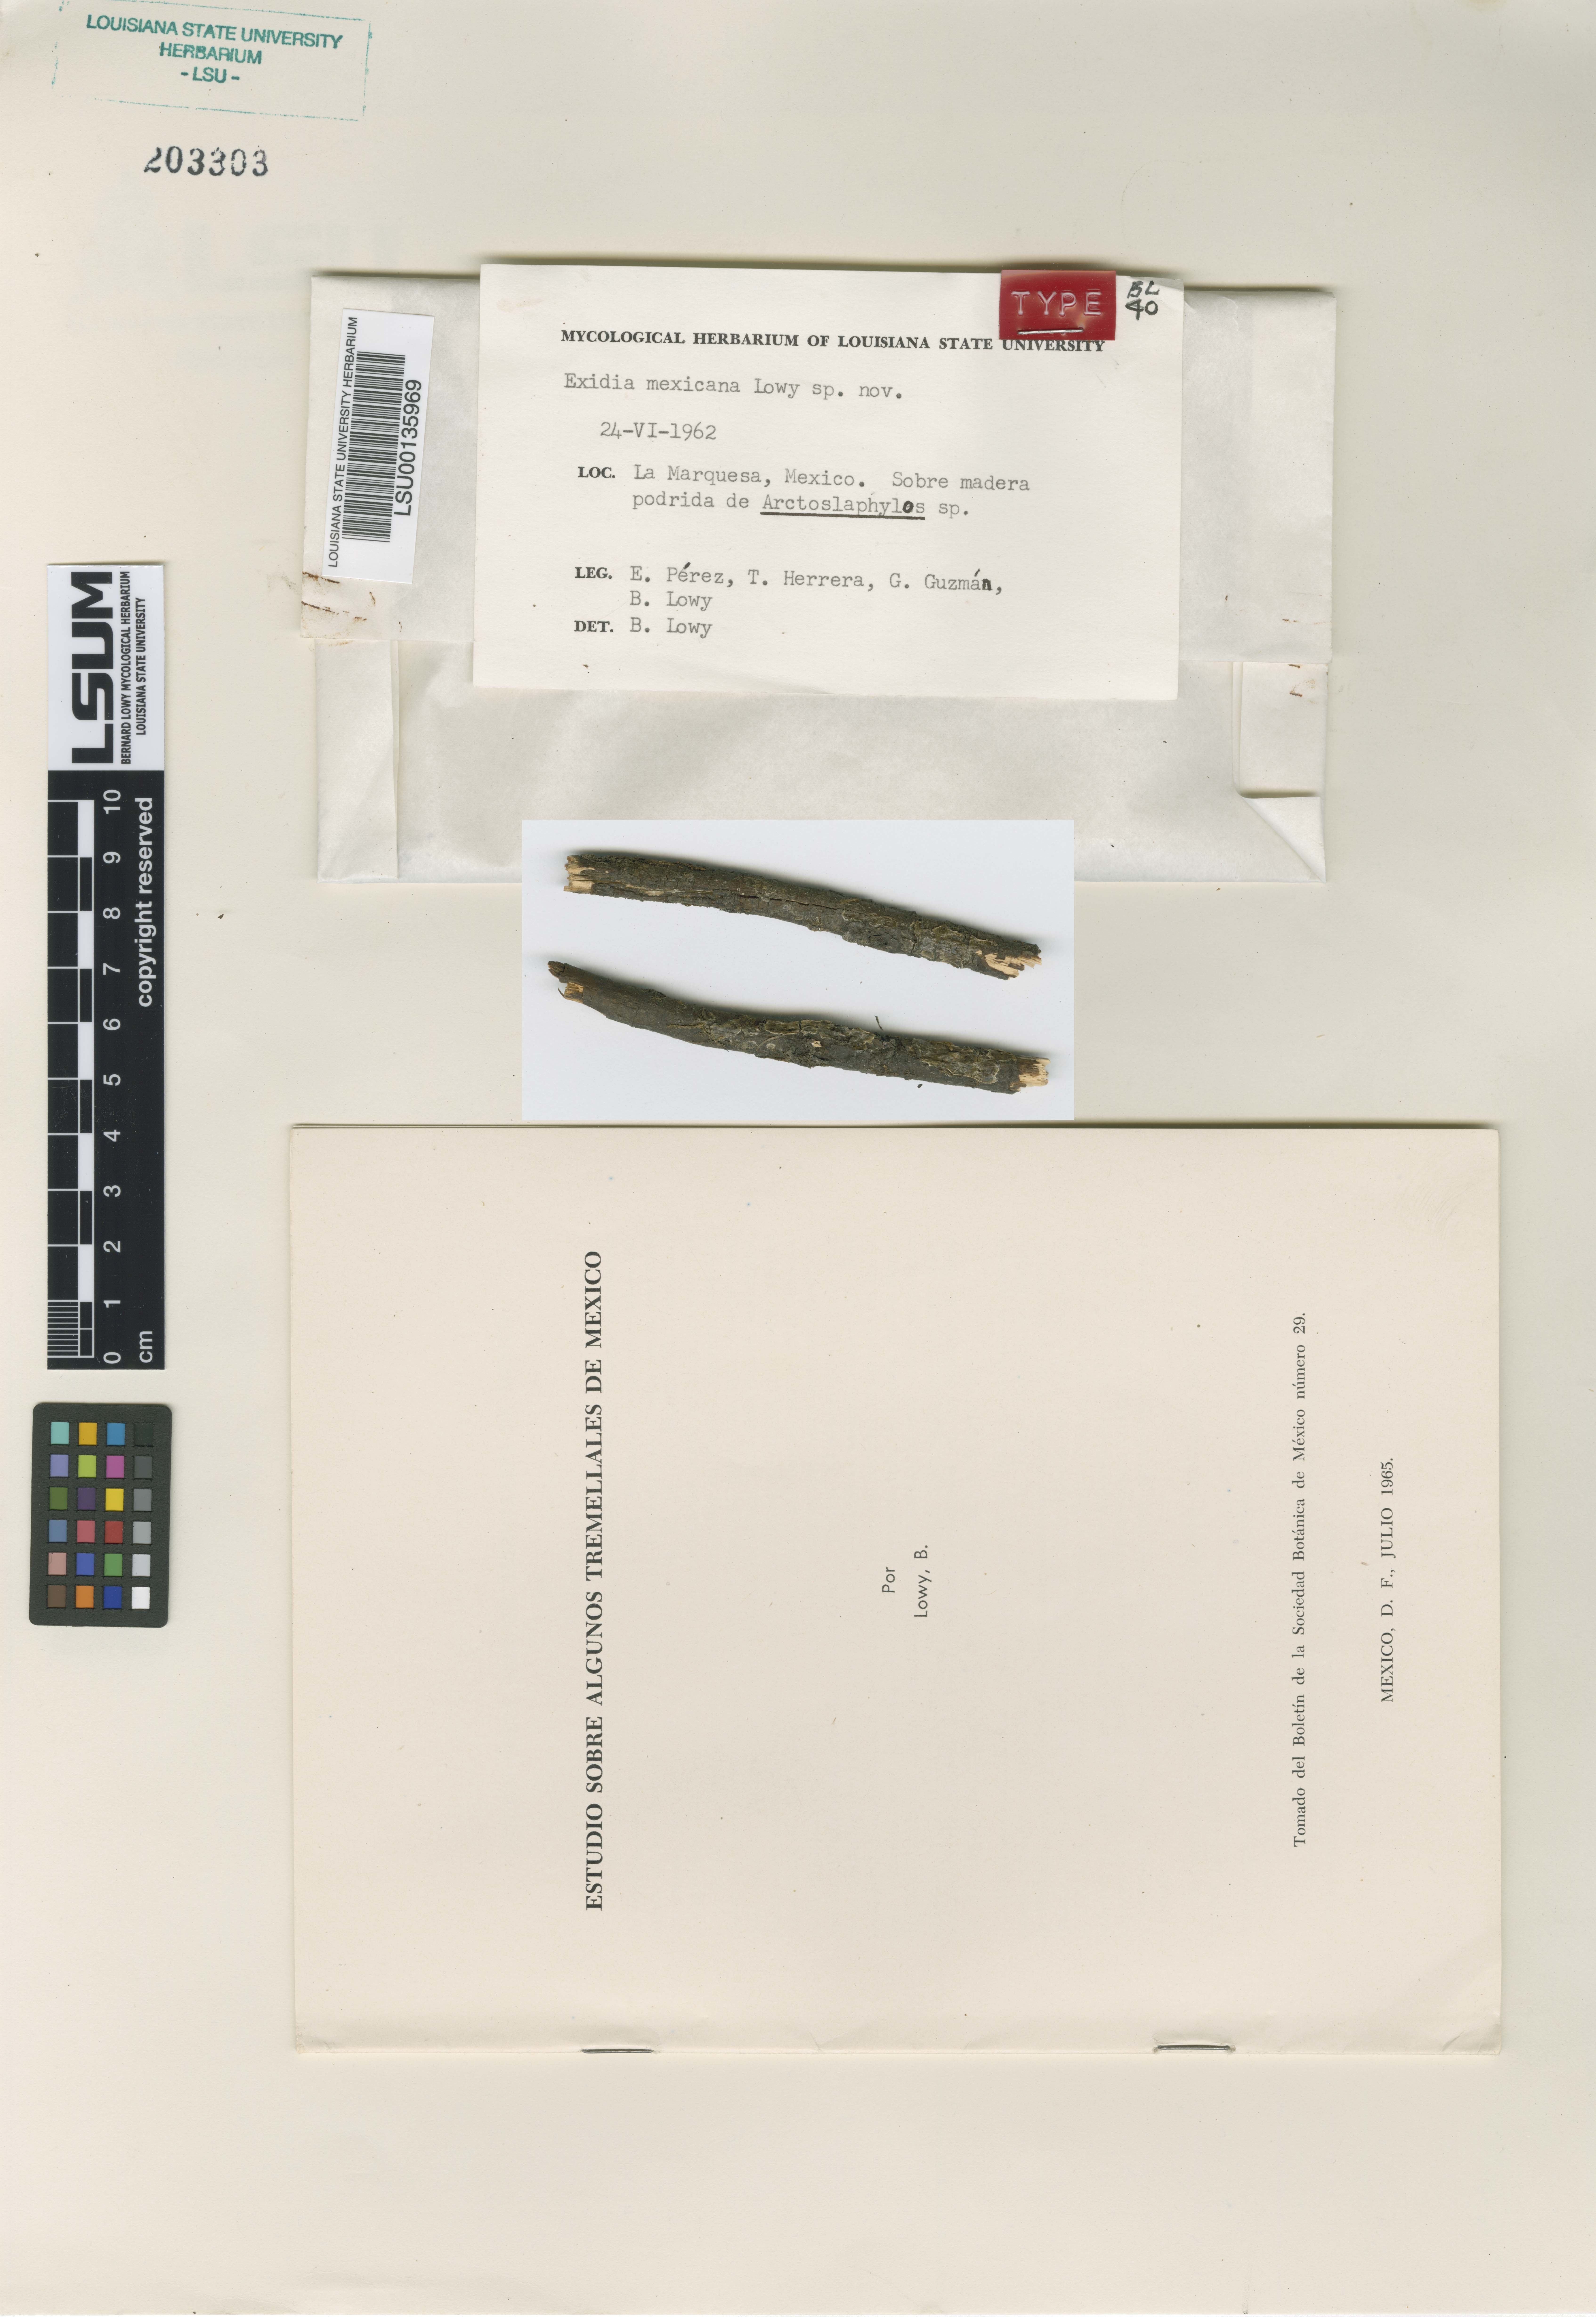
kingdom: Fungi
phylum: Basidiomycota
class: Agaricomycetes
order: Auriculariales
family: Auriculariaceae
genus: Exidia
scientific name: Exidia mexicana
